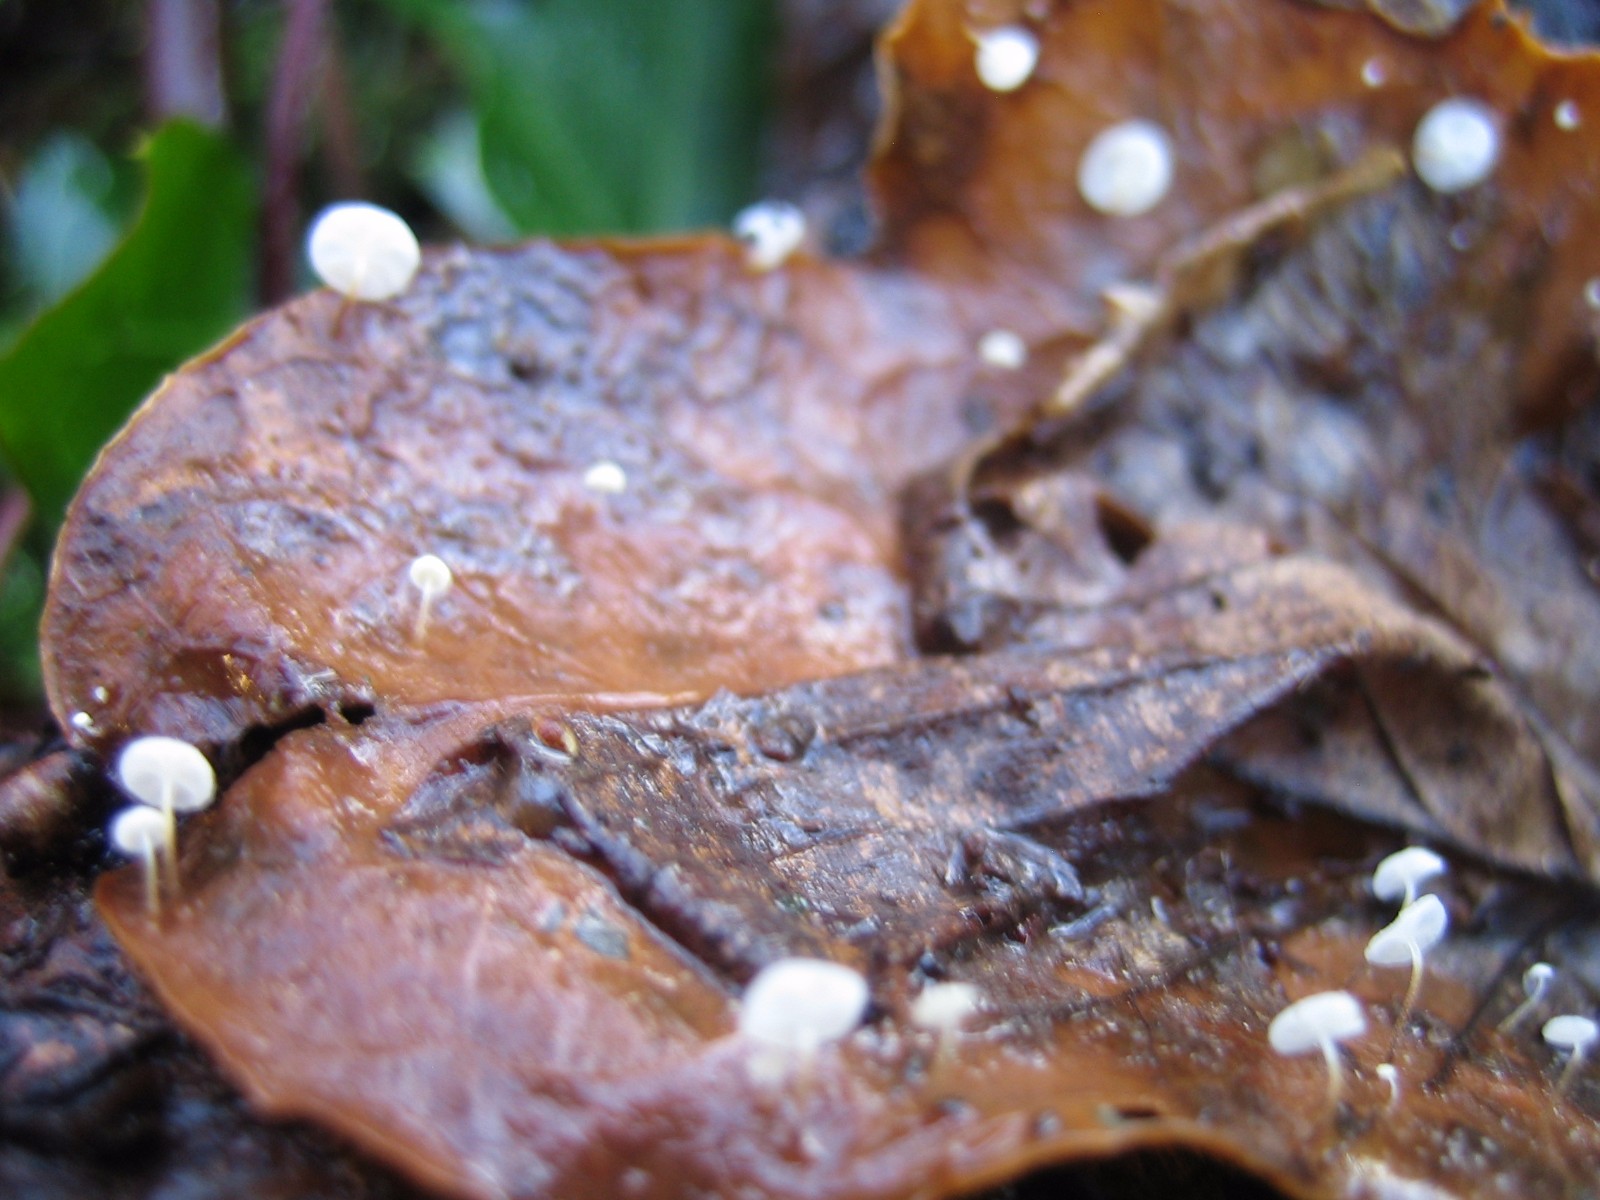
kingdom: Fungi
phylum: Basidiomycota
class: Agaricomycetes
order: Agaricales
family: Marasmiaceae
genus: Marasmius
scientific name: Marasmius epiphylloides
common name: vedbend-bruskhat
